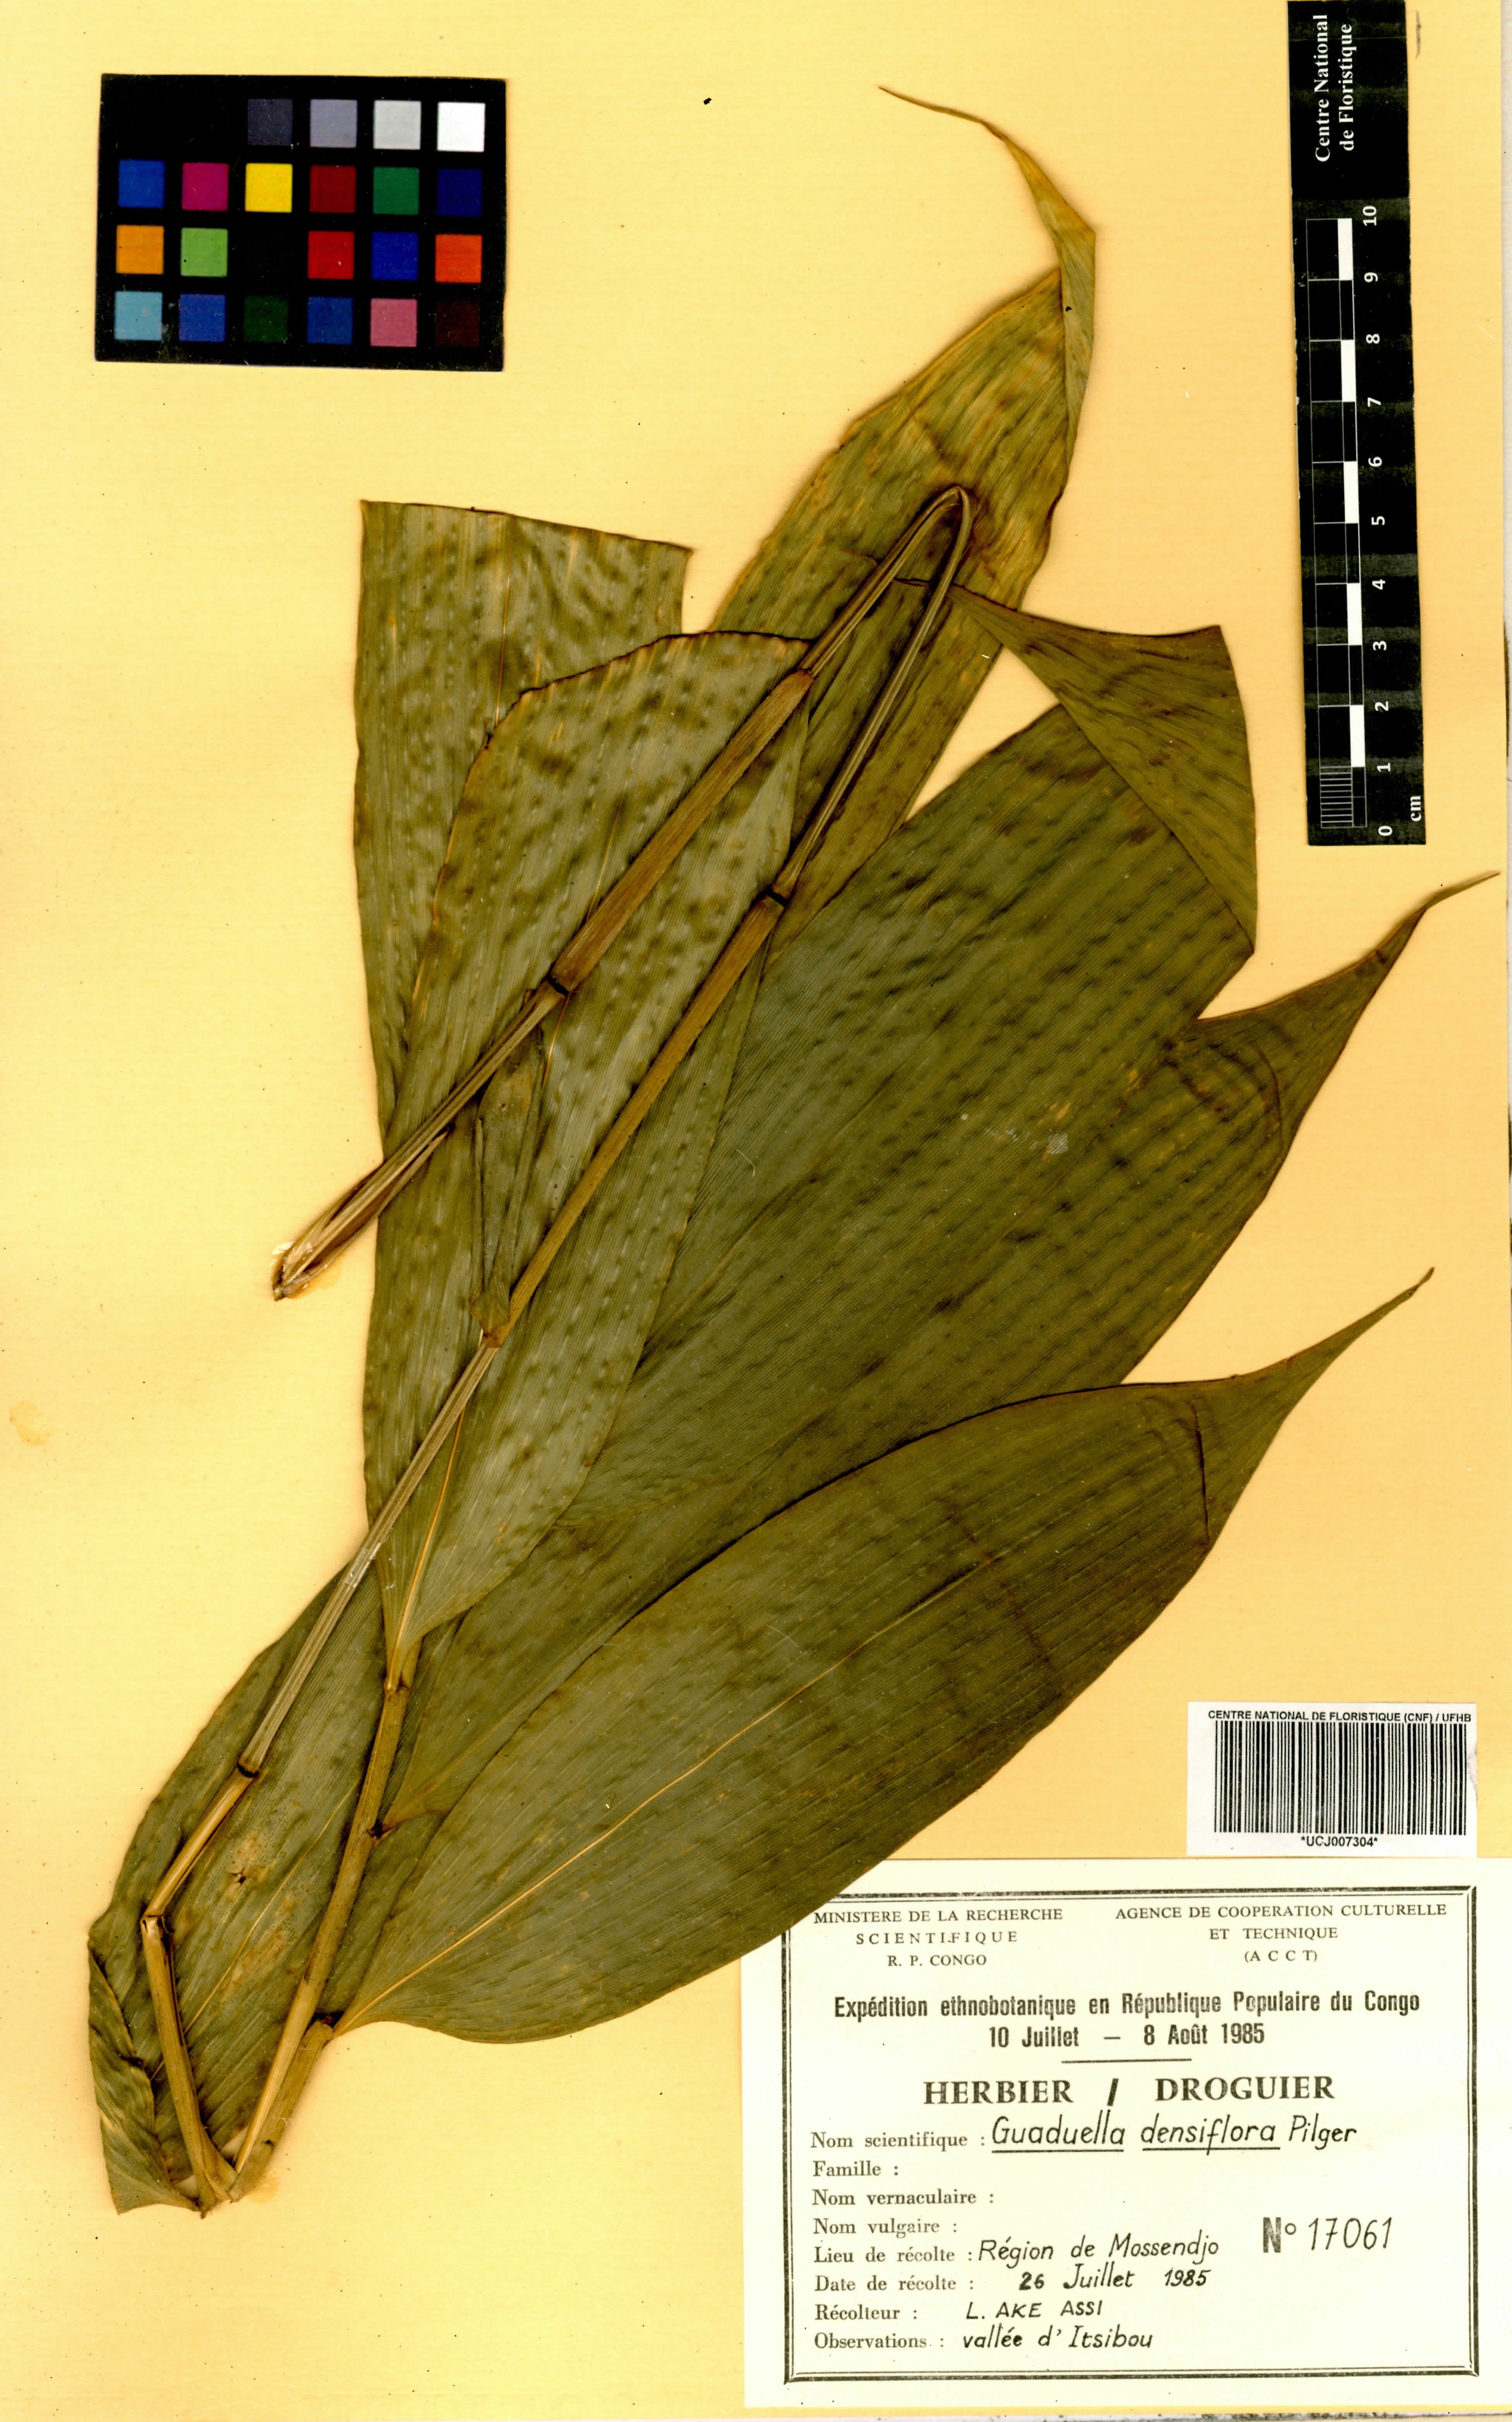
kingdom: Plantae
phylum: Tracheophyta
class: Liliopsida
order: Poales
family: Poaceae
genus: Guaduella
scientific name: Guaduella densiflora
